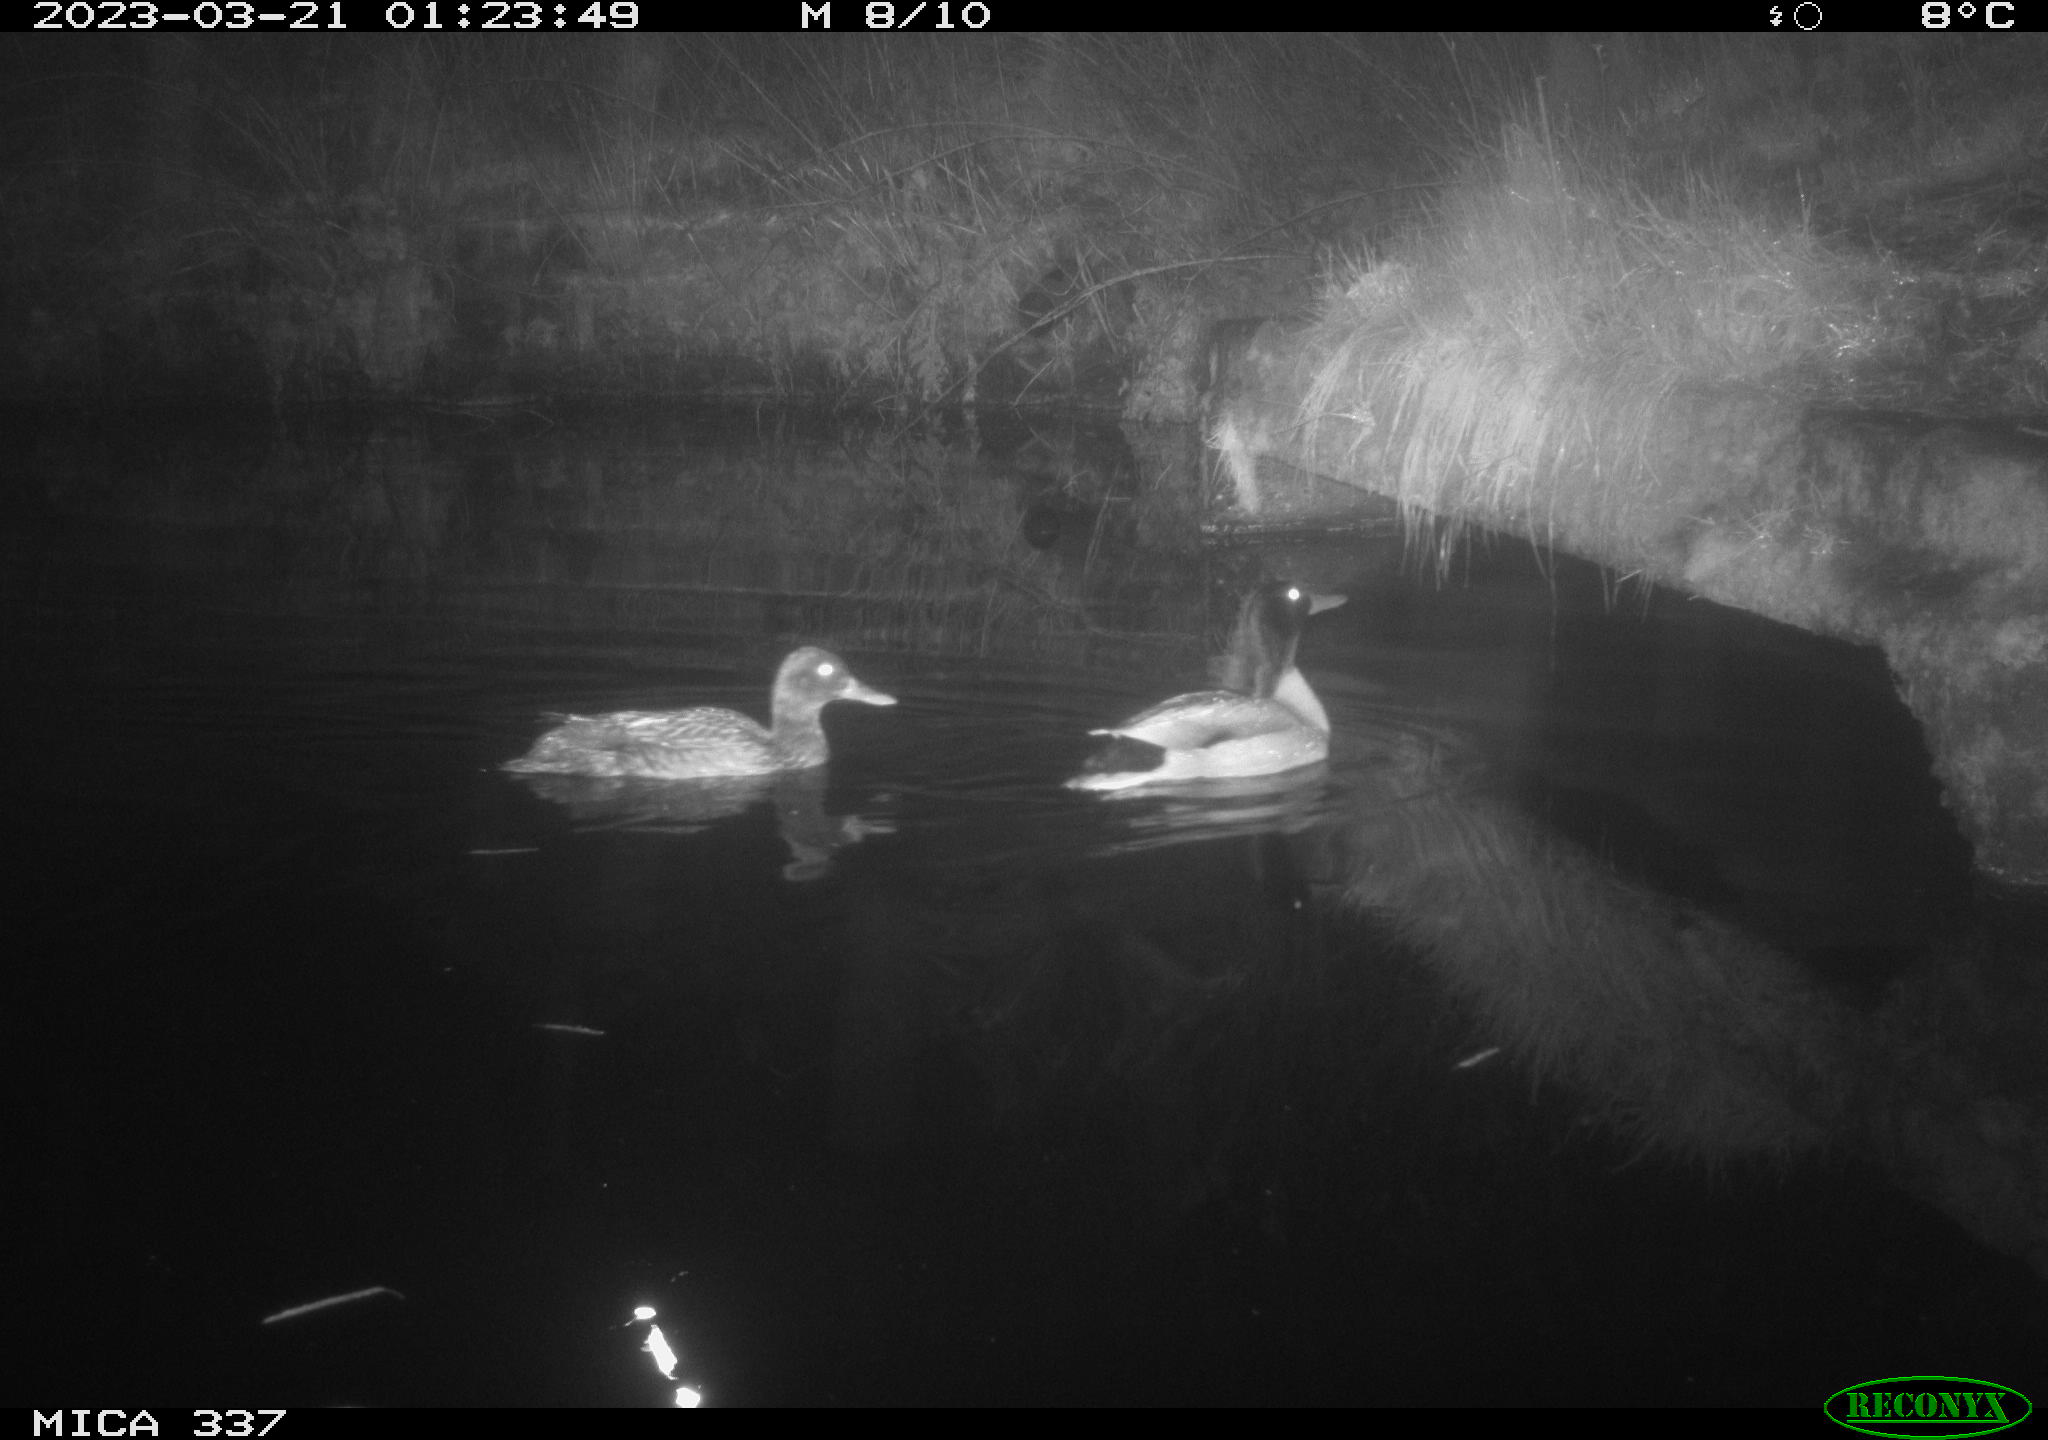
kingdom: Animalia
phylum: Chordata
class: Aves
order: Anseriformes
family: Anatidae
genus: Anas
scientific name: Anas
